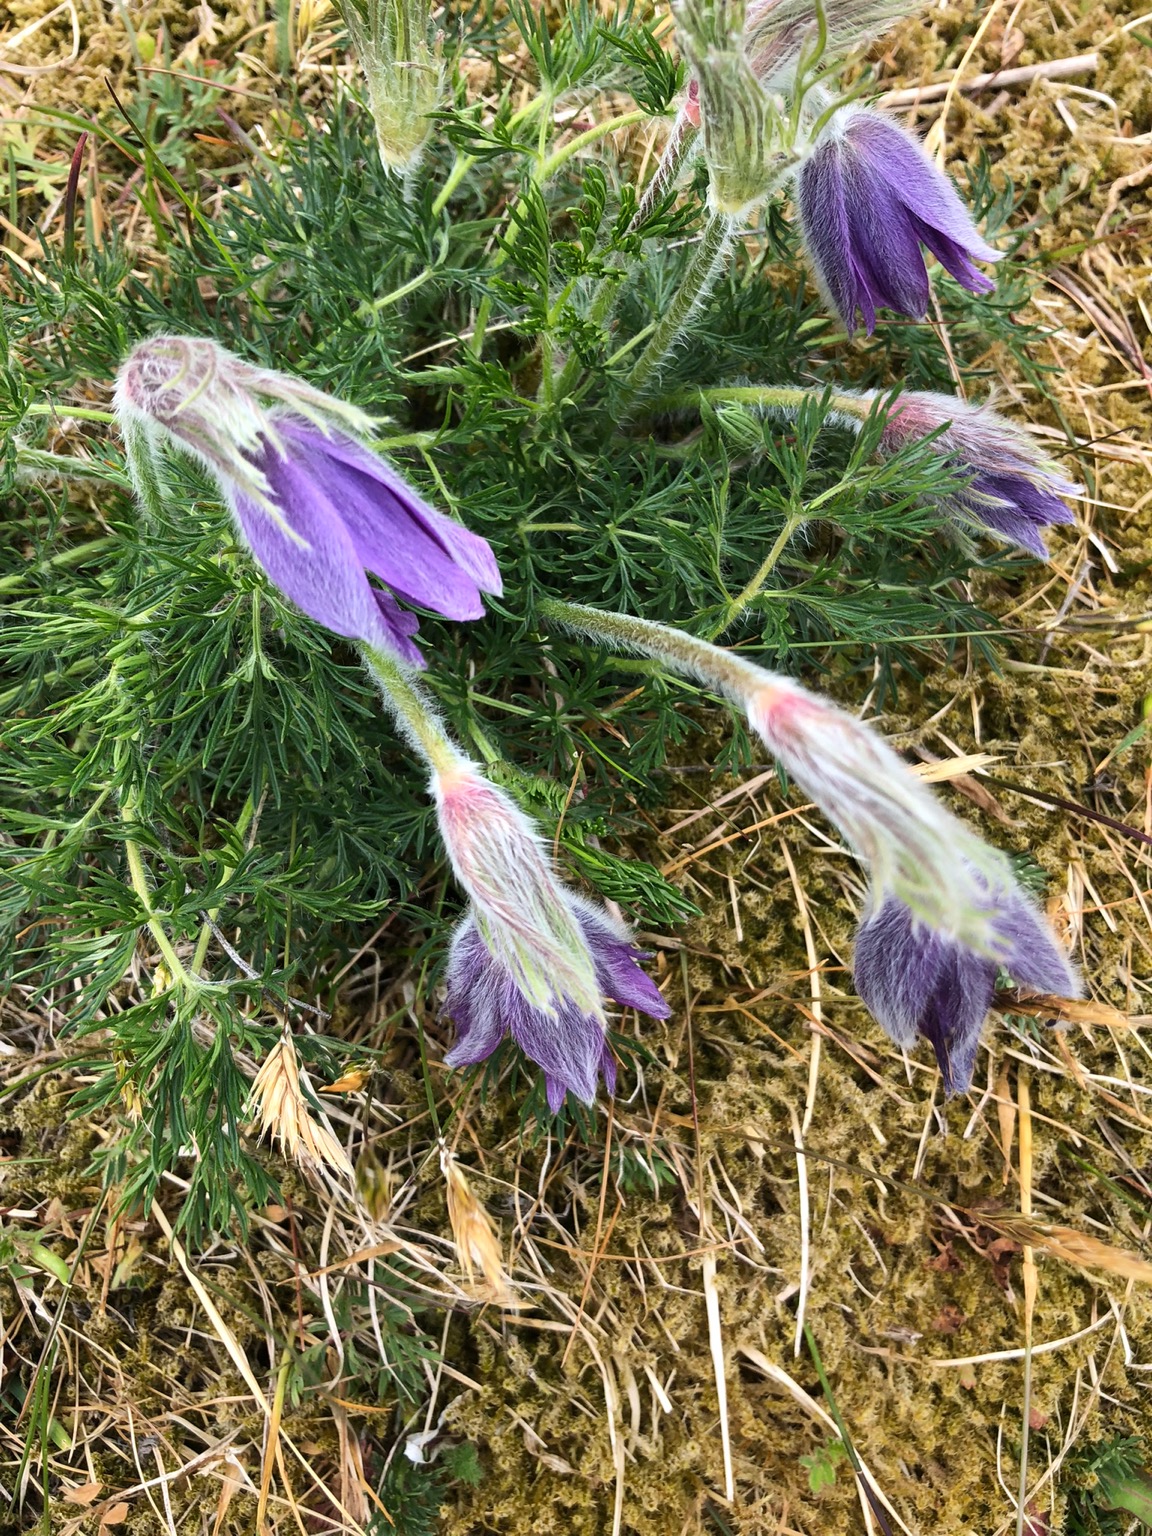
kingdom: Plantae
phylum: Tracheophyta
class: Magnoliopsida
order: Ranunculales
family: Ranunculaceae
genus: Pulsatilla
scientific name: Pulsatilla vulgaris
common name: Opret kobjælde
